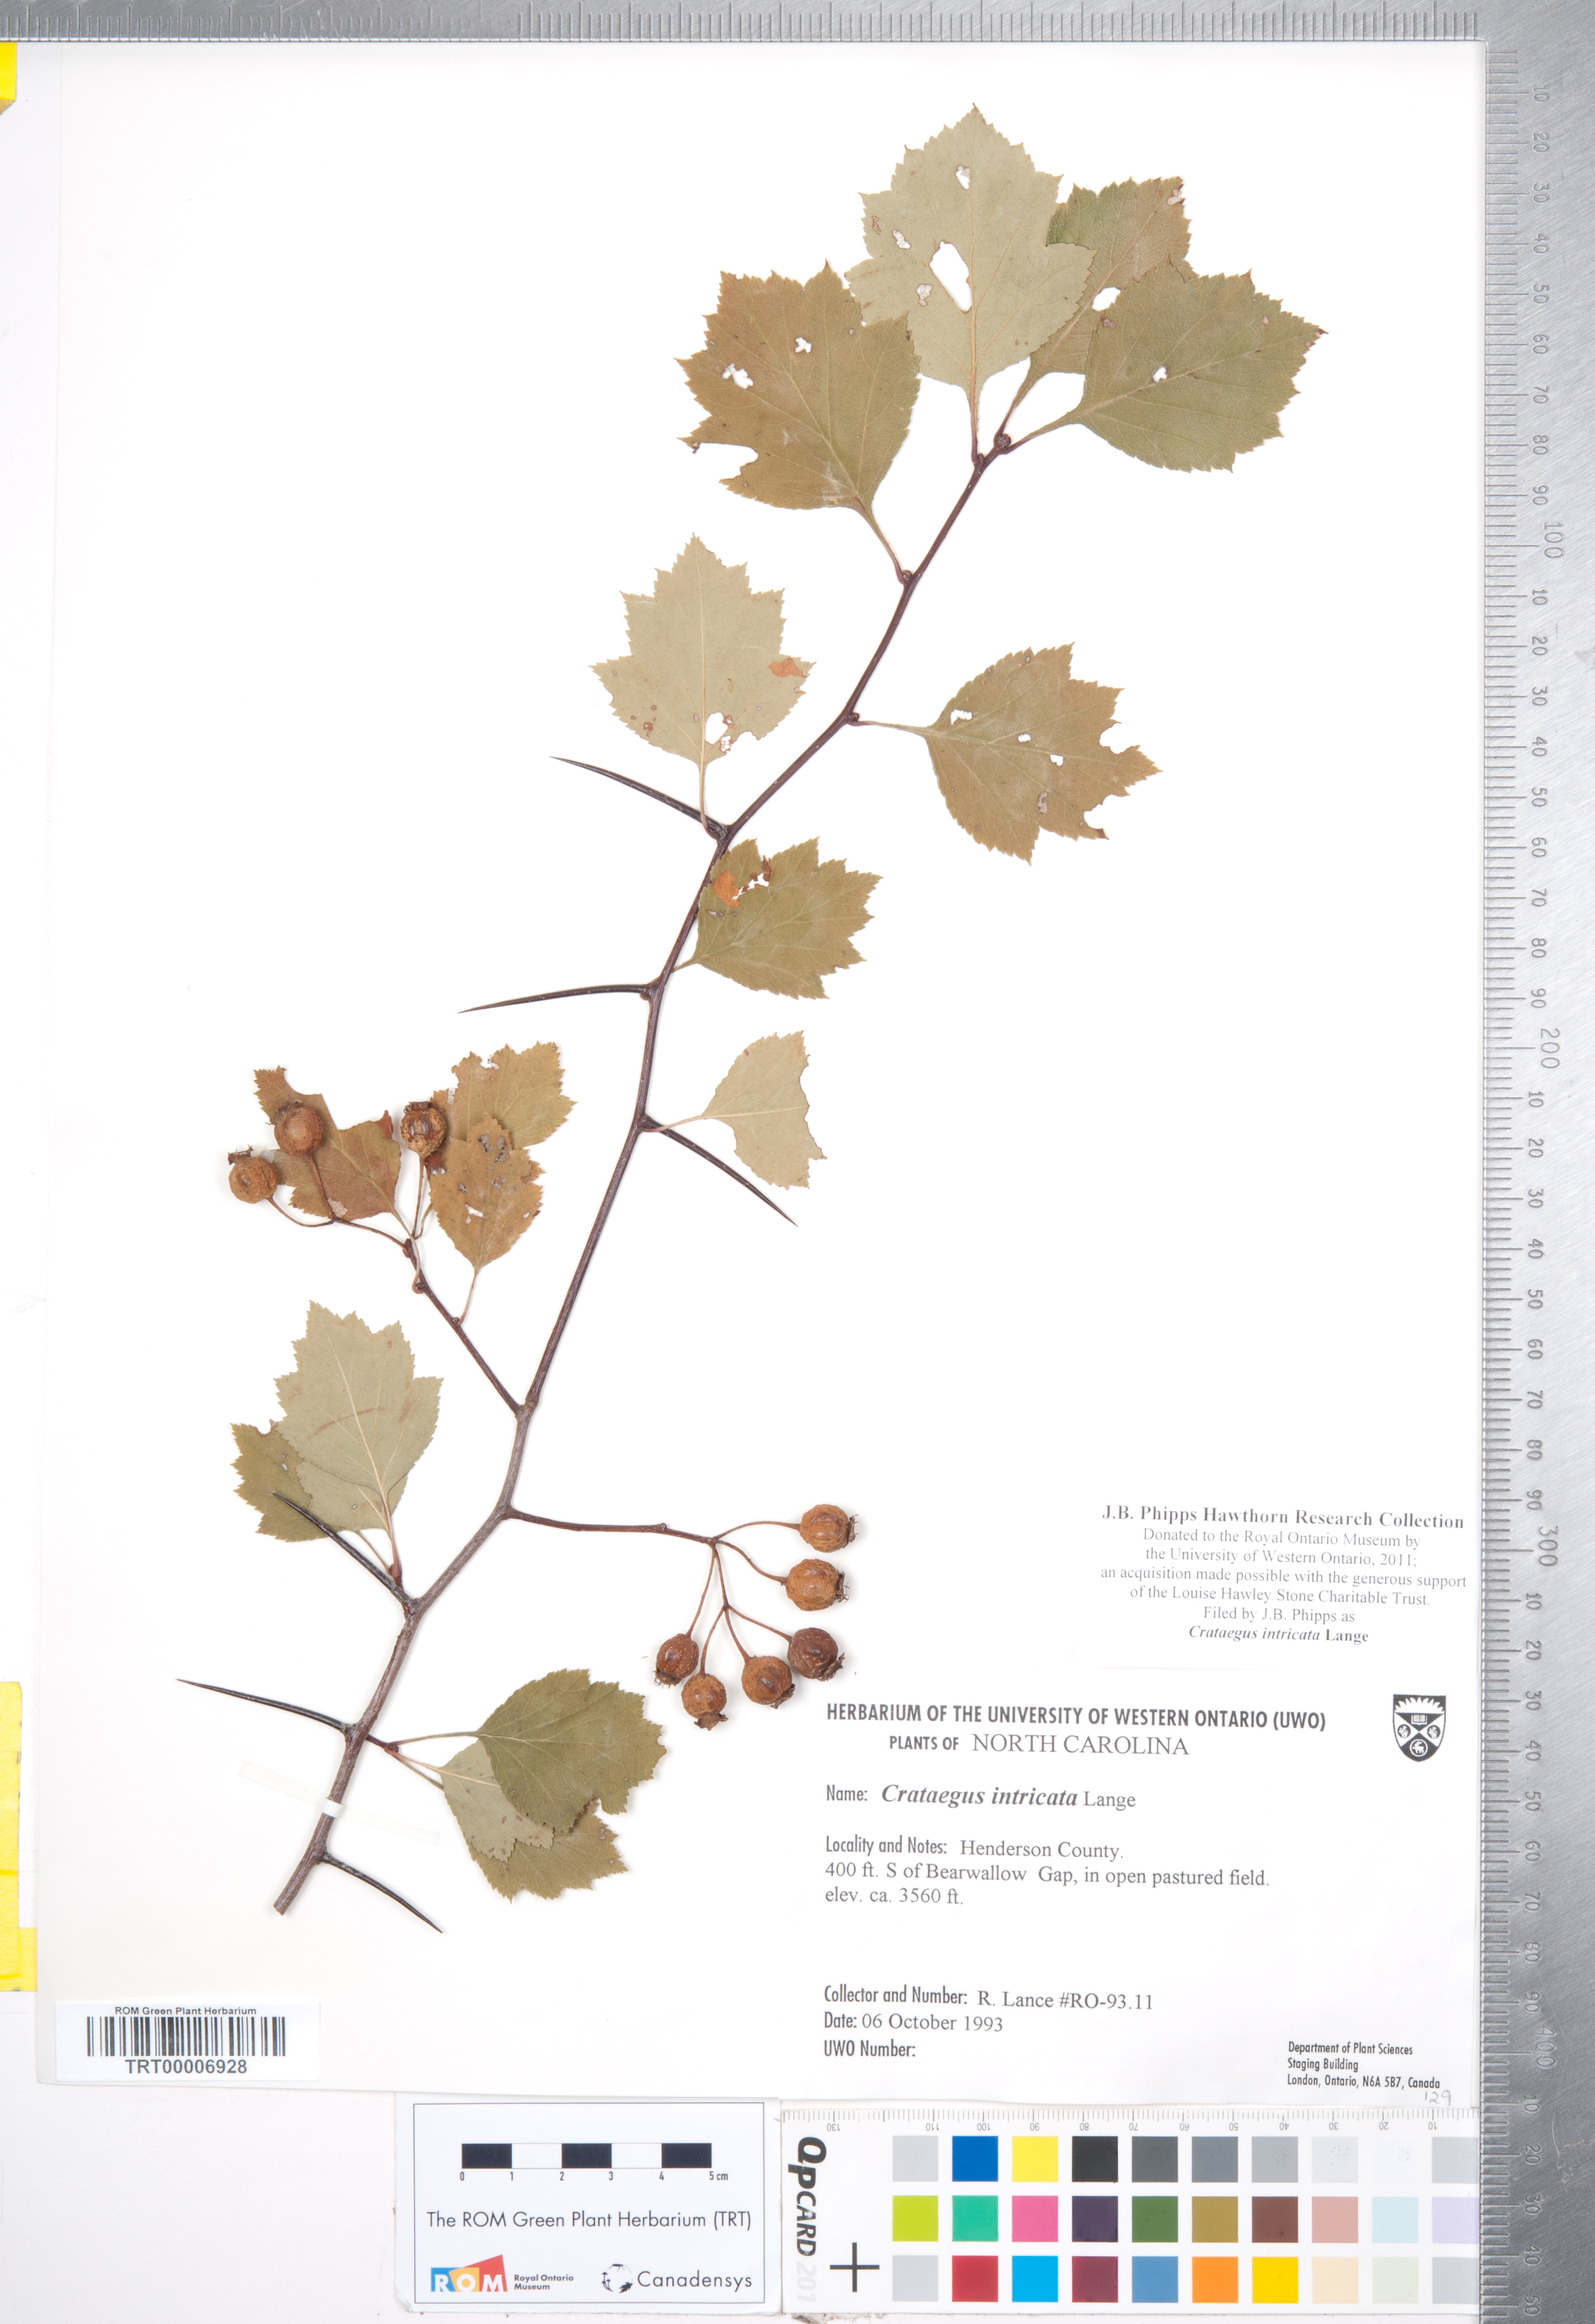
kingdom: Plantae
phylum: Tracheophyta
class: Magnoliopsida
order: Rosales
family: Rosaceae
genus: Crataegus
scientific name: Crataegus intricata
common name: Biltmore hawthorn
